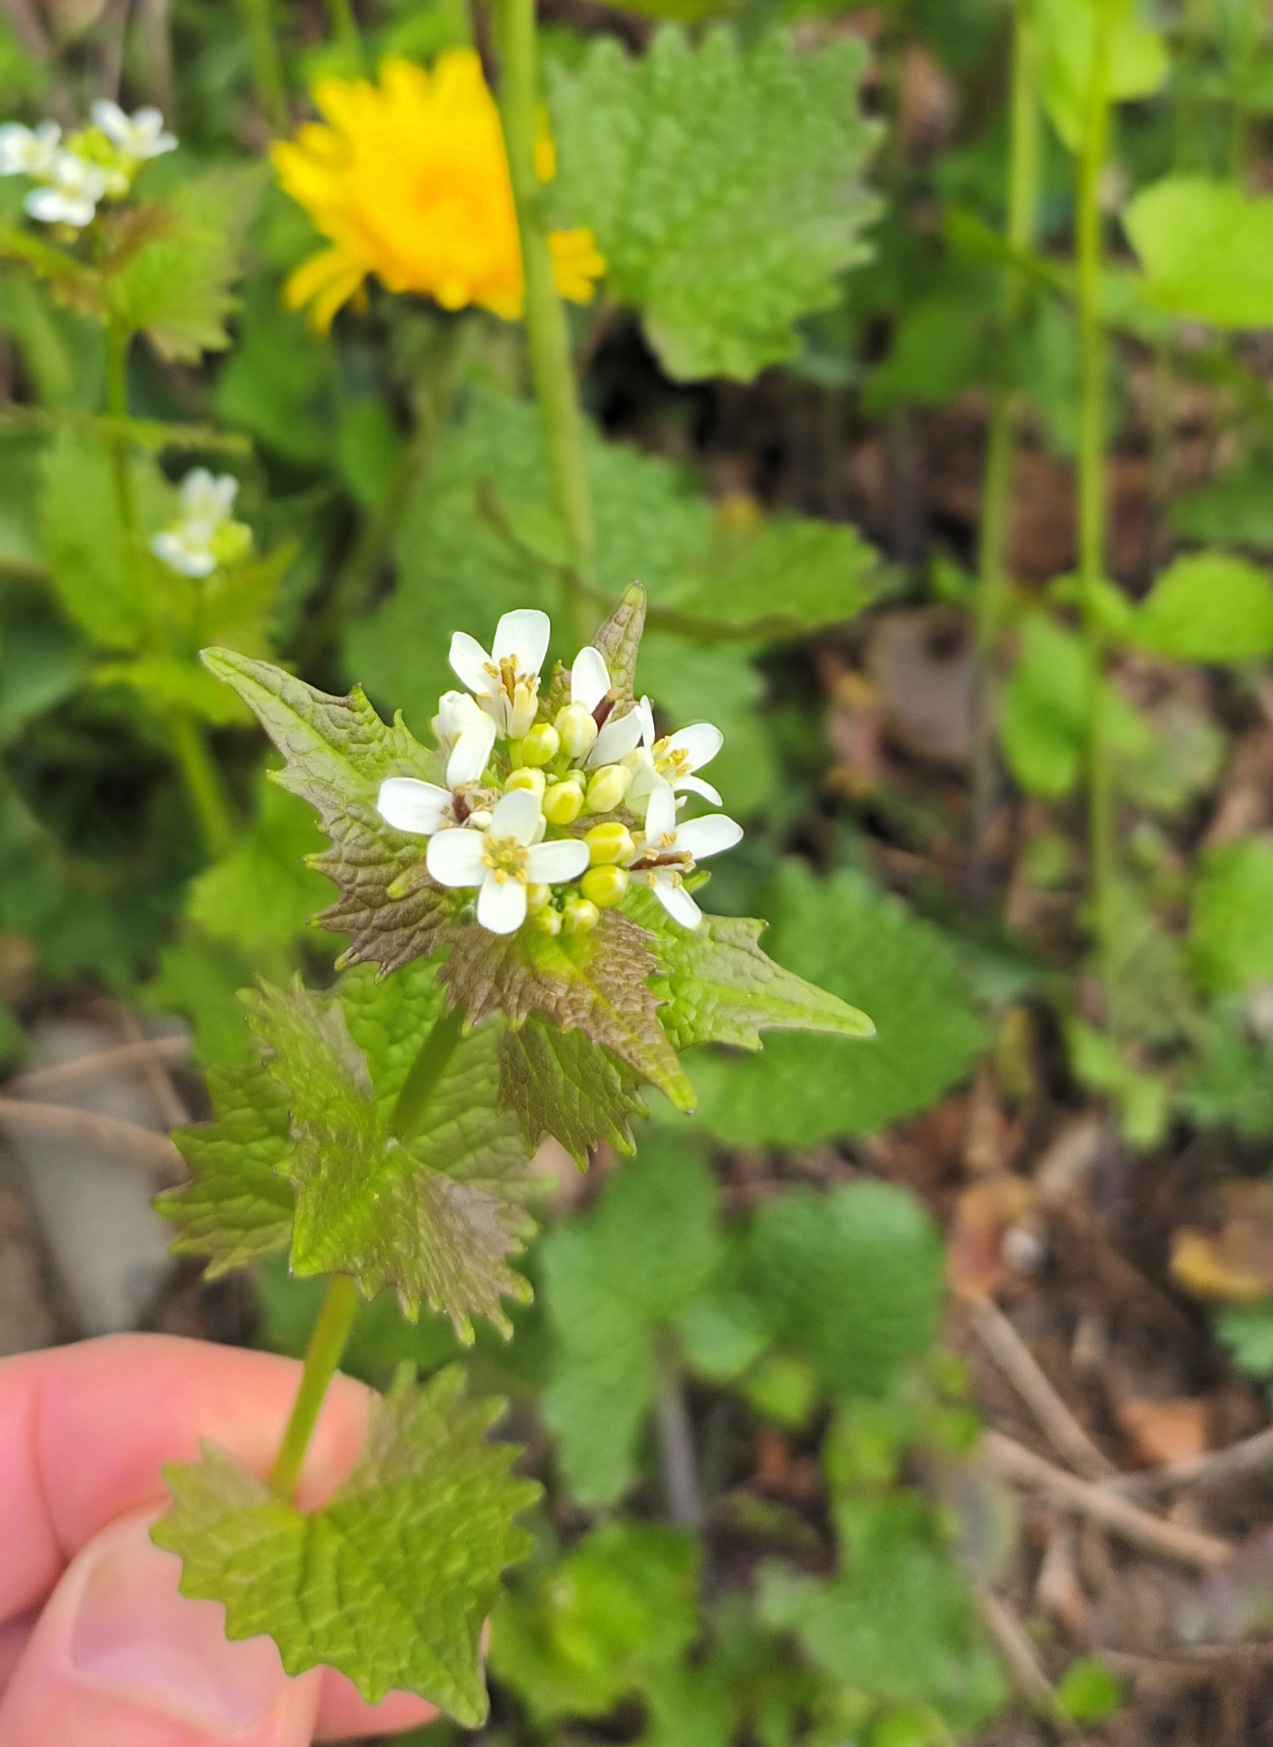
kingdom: Plantae
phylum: Tracheophyta
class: Magnoliopsida
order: Brassicales
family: Brassicaceae
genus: Alliaria
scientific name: Alliaria petiolata
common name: Løgkarse
